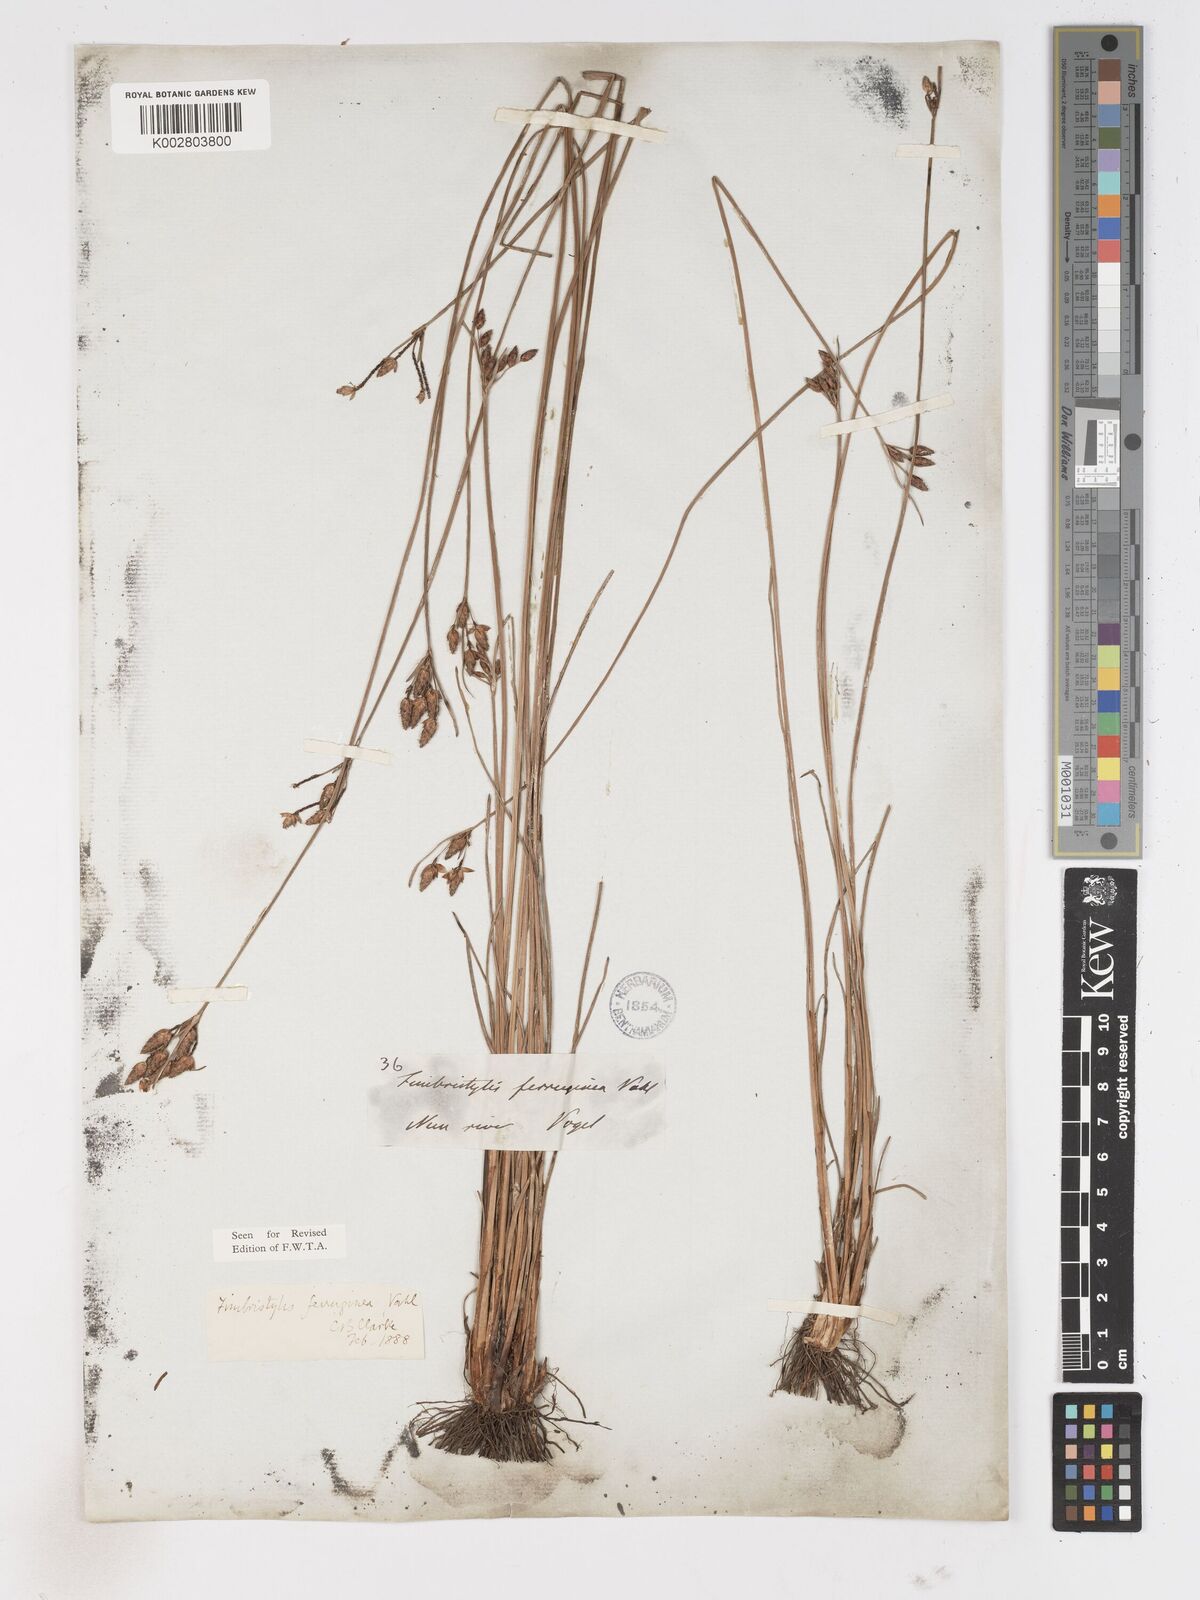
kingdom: Plantae
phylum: Tracheophyta
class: Liliopsida
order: Poales
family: Cyperaceae
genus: Fimbristylis
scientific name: Fimbristylis ferruginea
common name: West indian fimbry
